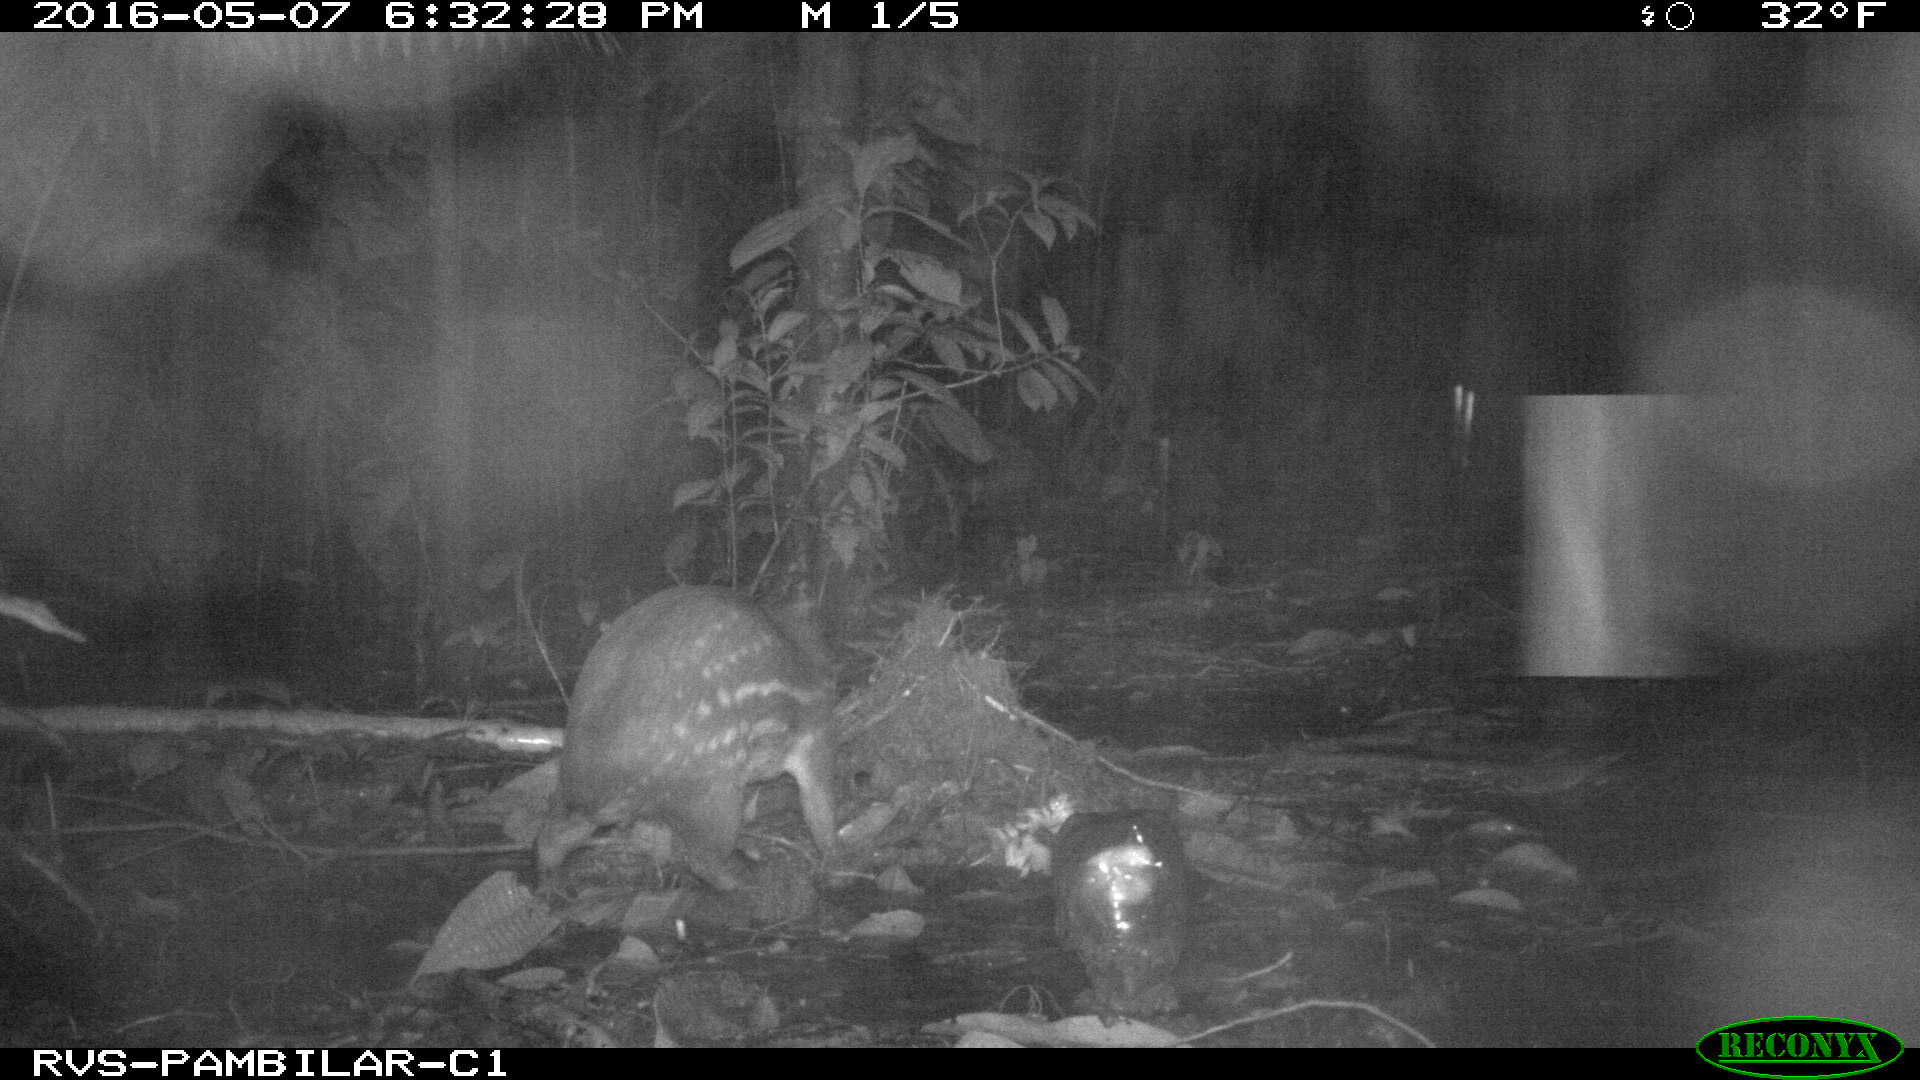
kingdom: Animalia
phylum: Chordata
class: Mammalia
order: Rodentia
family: Cuniculidae
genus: Cuniculus
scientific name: Cuniculus paca
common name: Lowland paca
